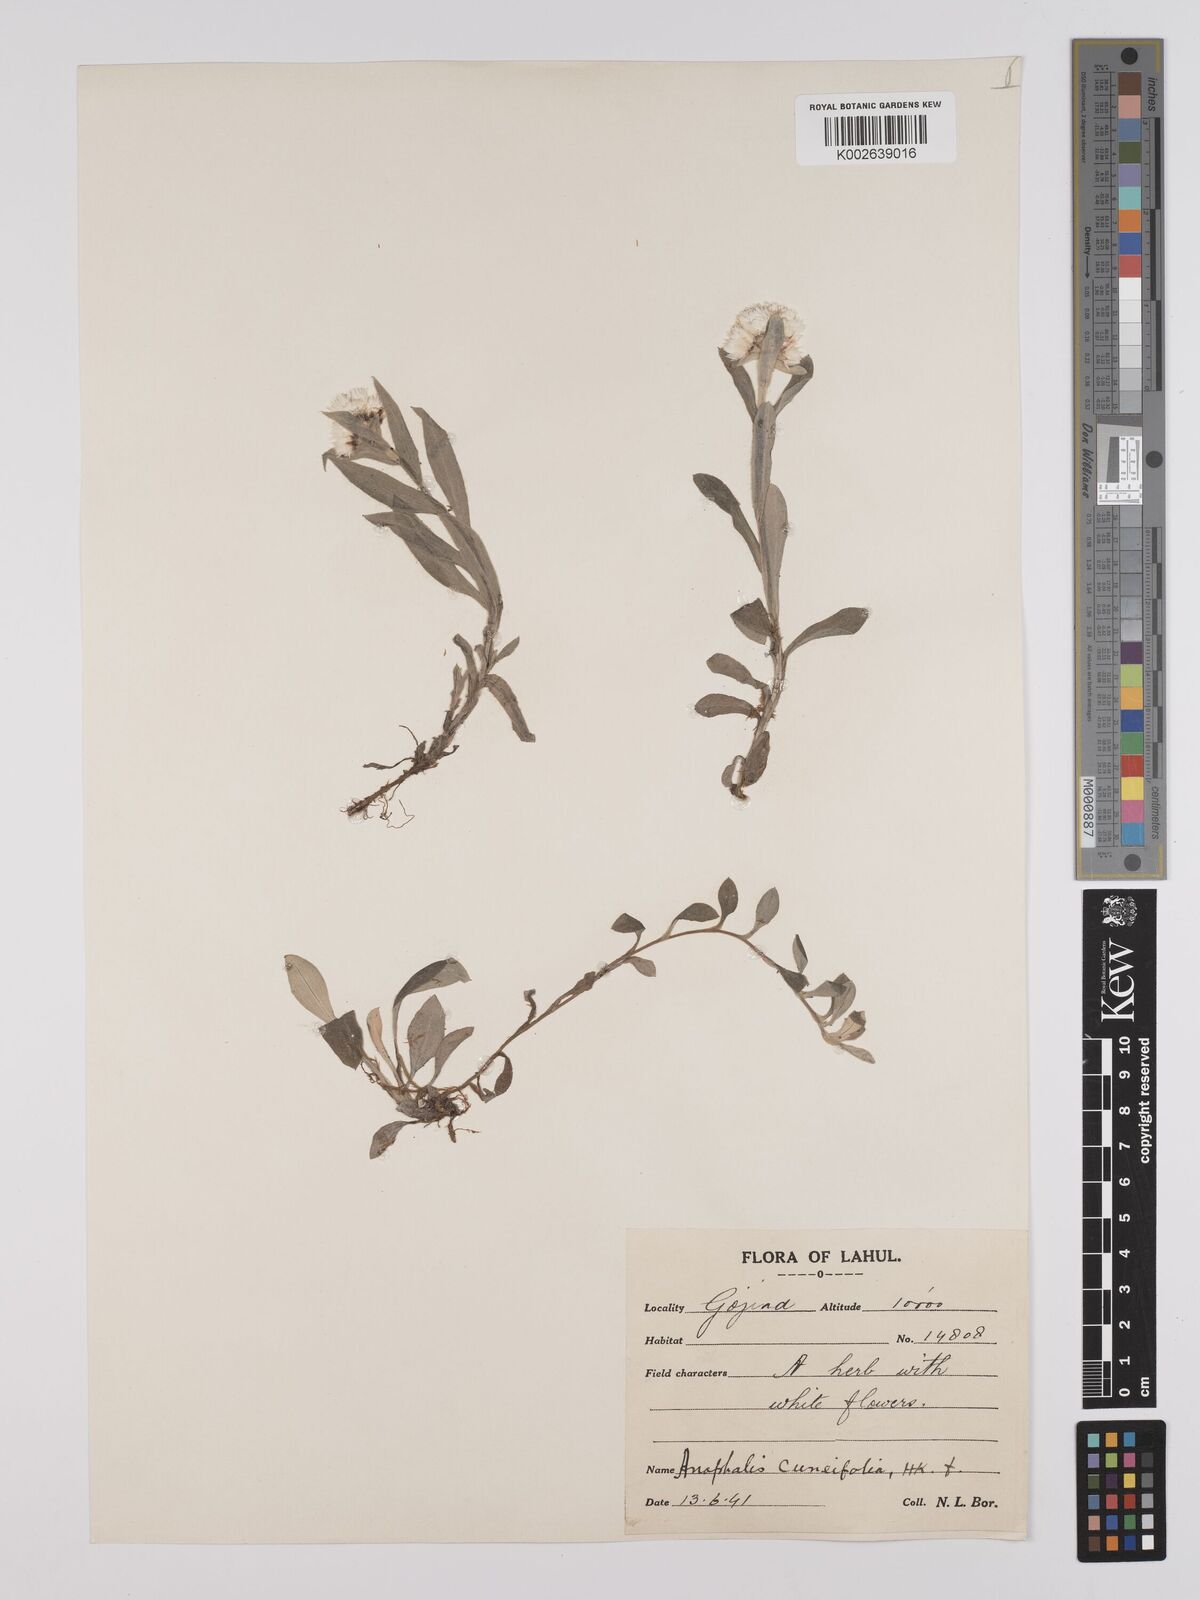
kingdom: Plantae
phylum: Tracheophyta
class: Magnoliopsida
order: Asterales
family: Asteraceae
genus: Anaphalioides
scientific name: Anaphalioides trinervis
